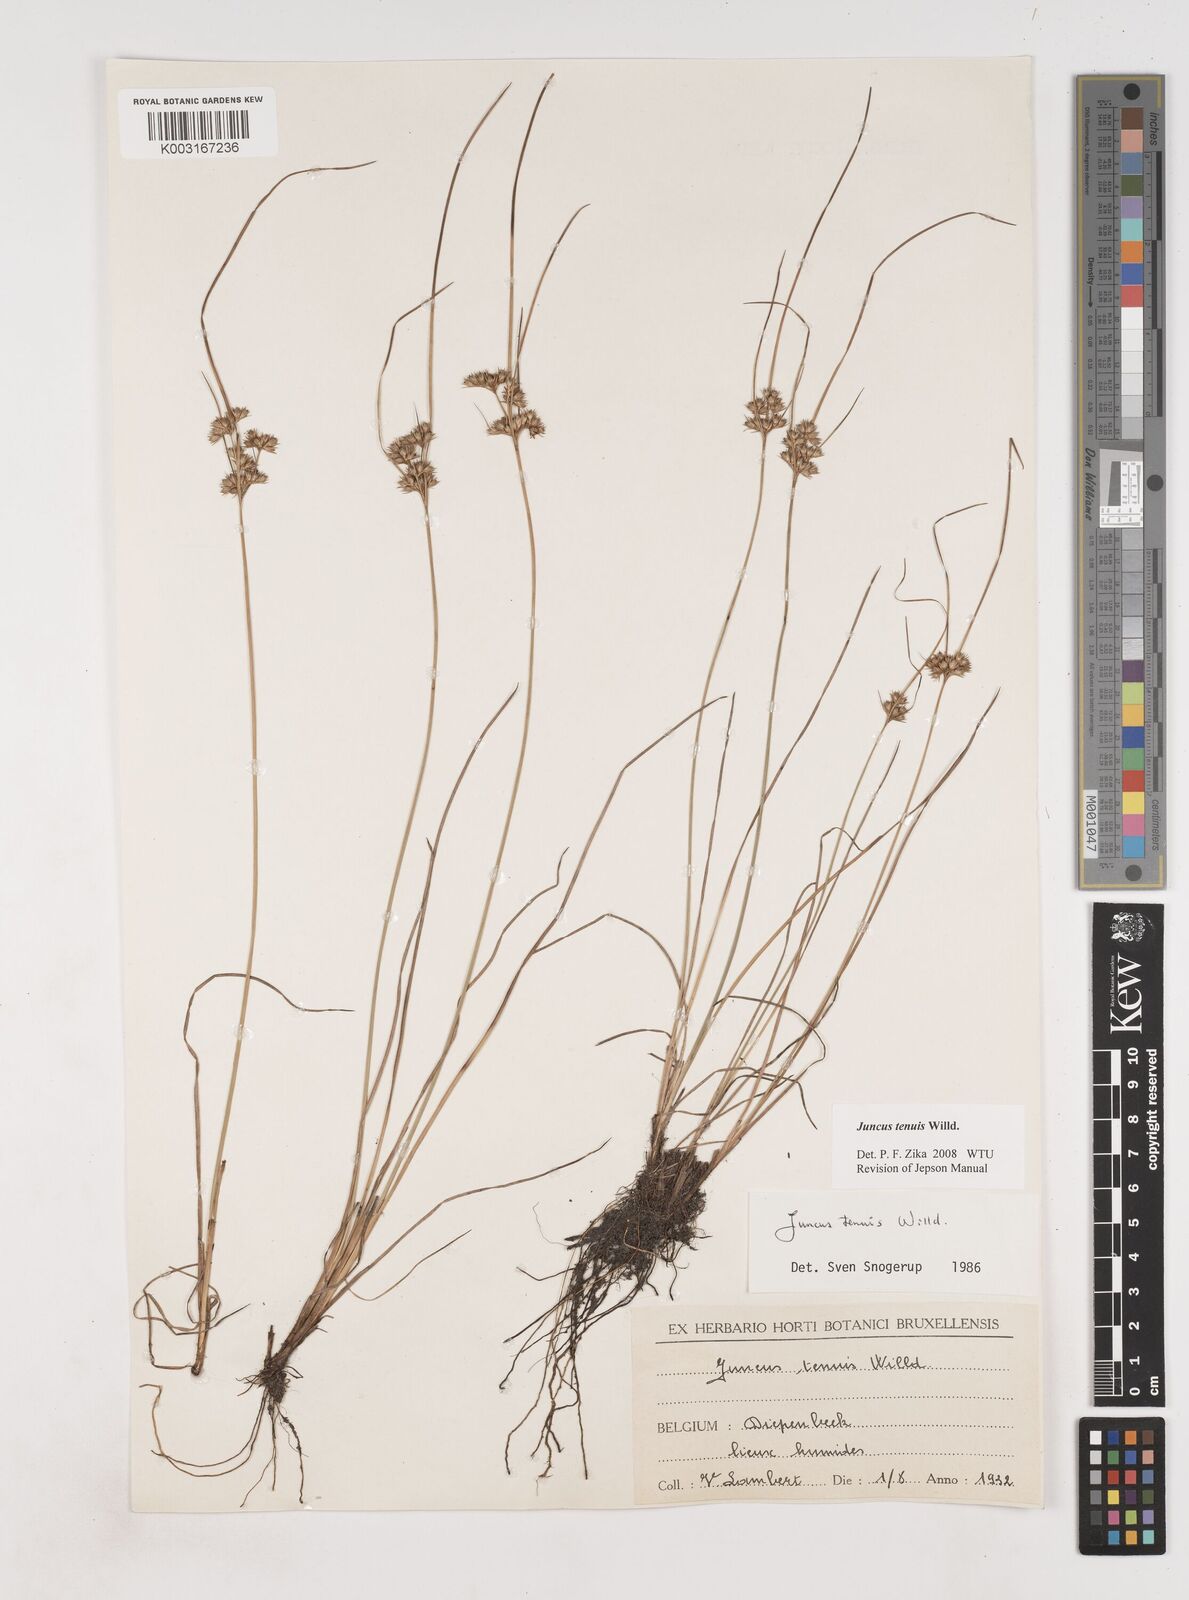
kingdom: Plantae
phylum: Tracheophyta
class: Liliopsida
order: Poales
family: Juncaceae
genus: Juncus
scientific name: Juncus tenuis
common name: Slender rush
